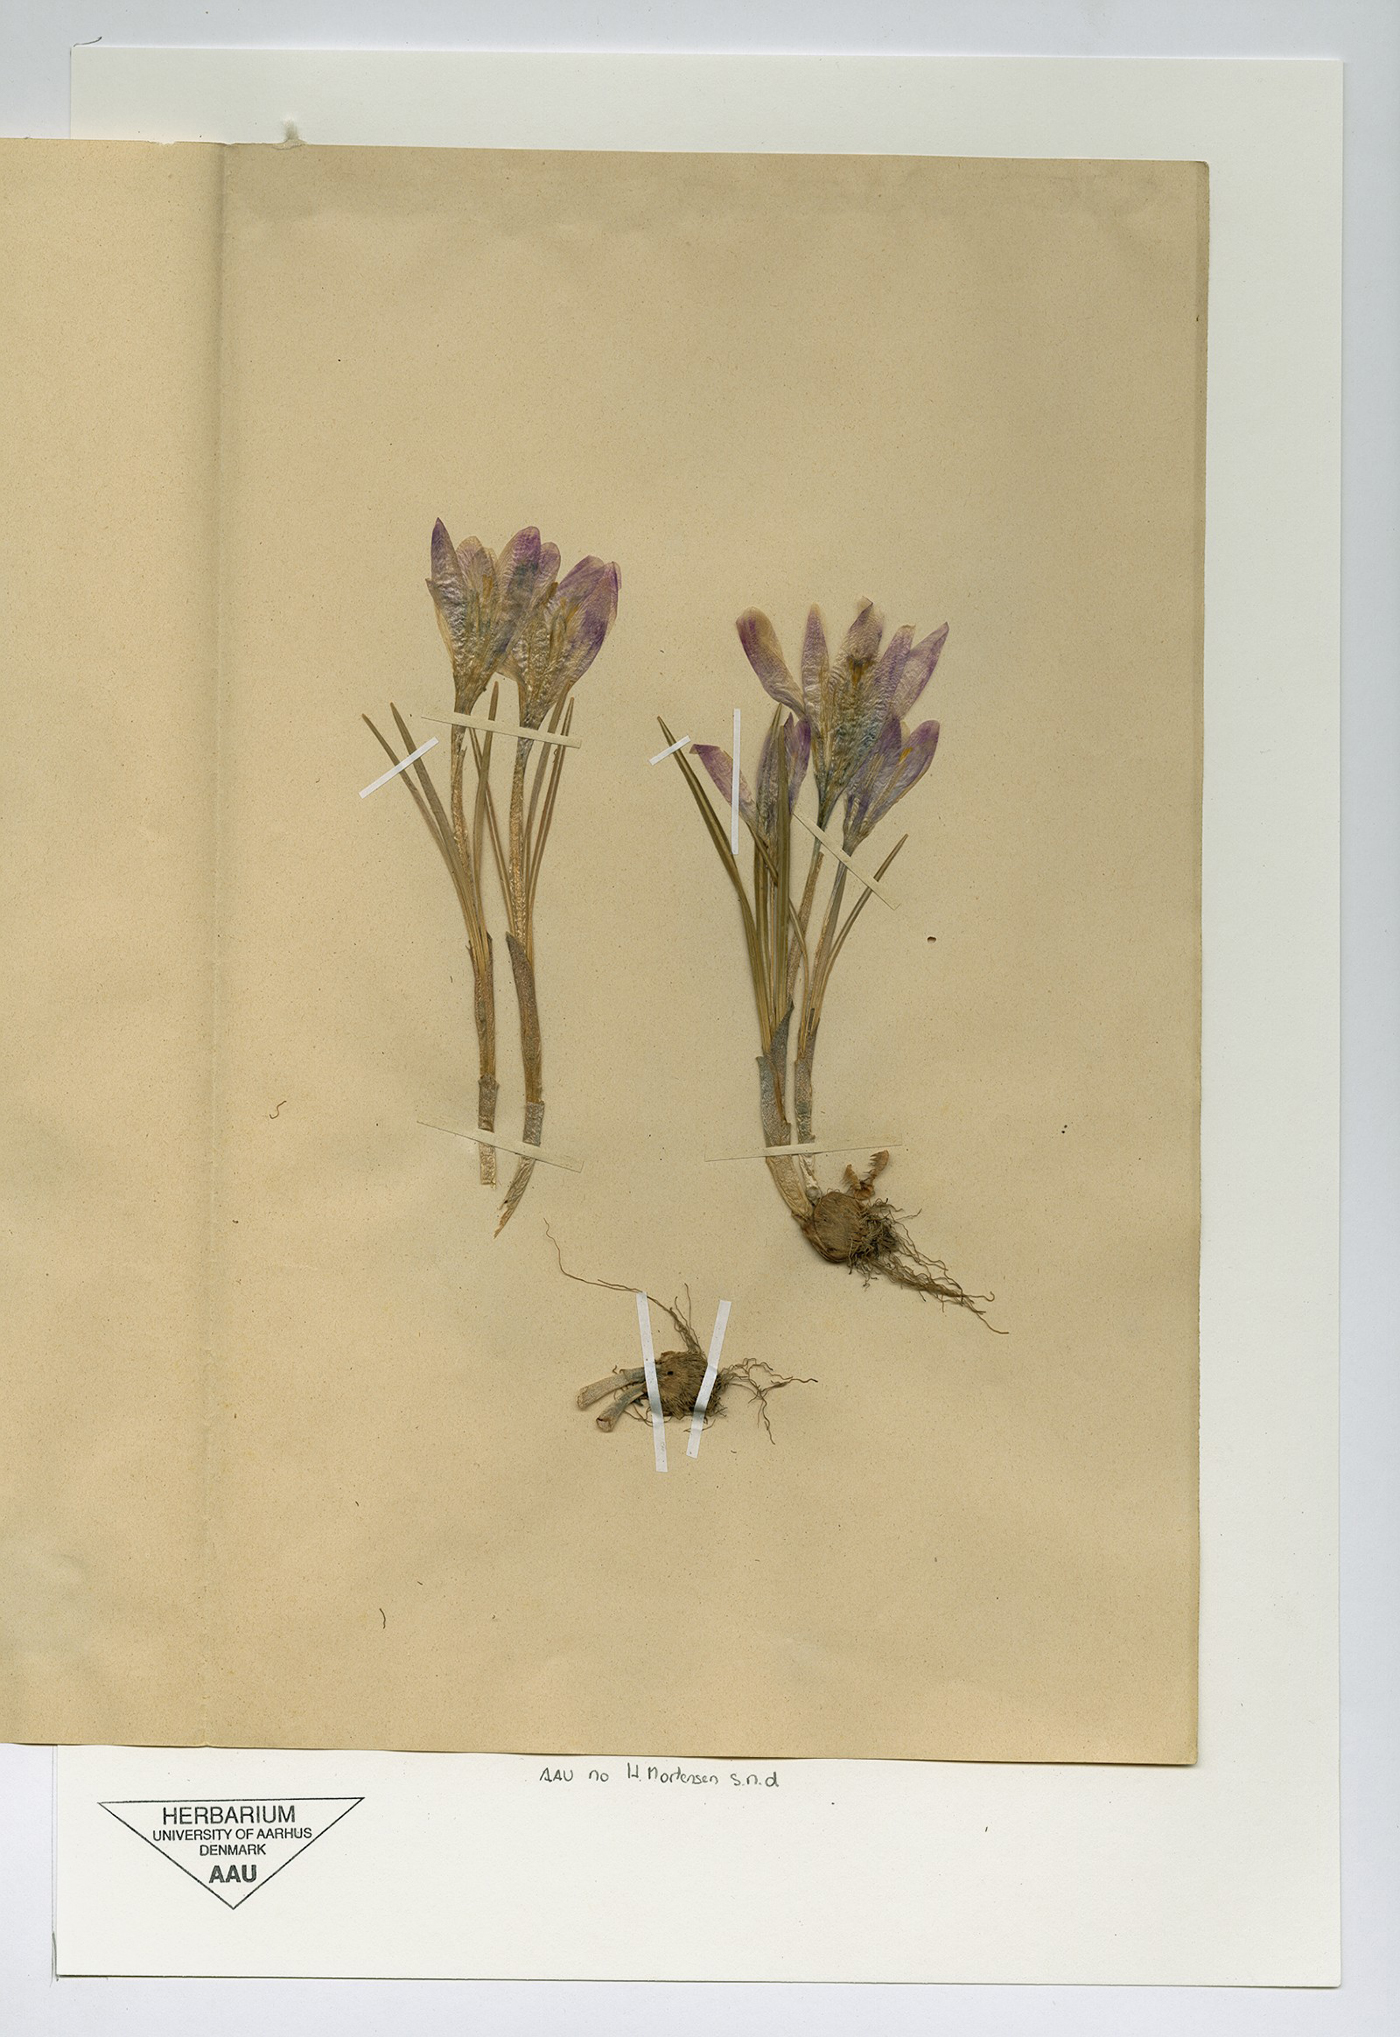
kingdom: Plantae
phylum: Tracheophyta
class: Liliopsida
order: Asparagales
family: Iridaceae
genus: Crocus
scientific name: Crocus neapolitanus
